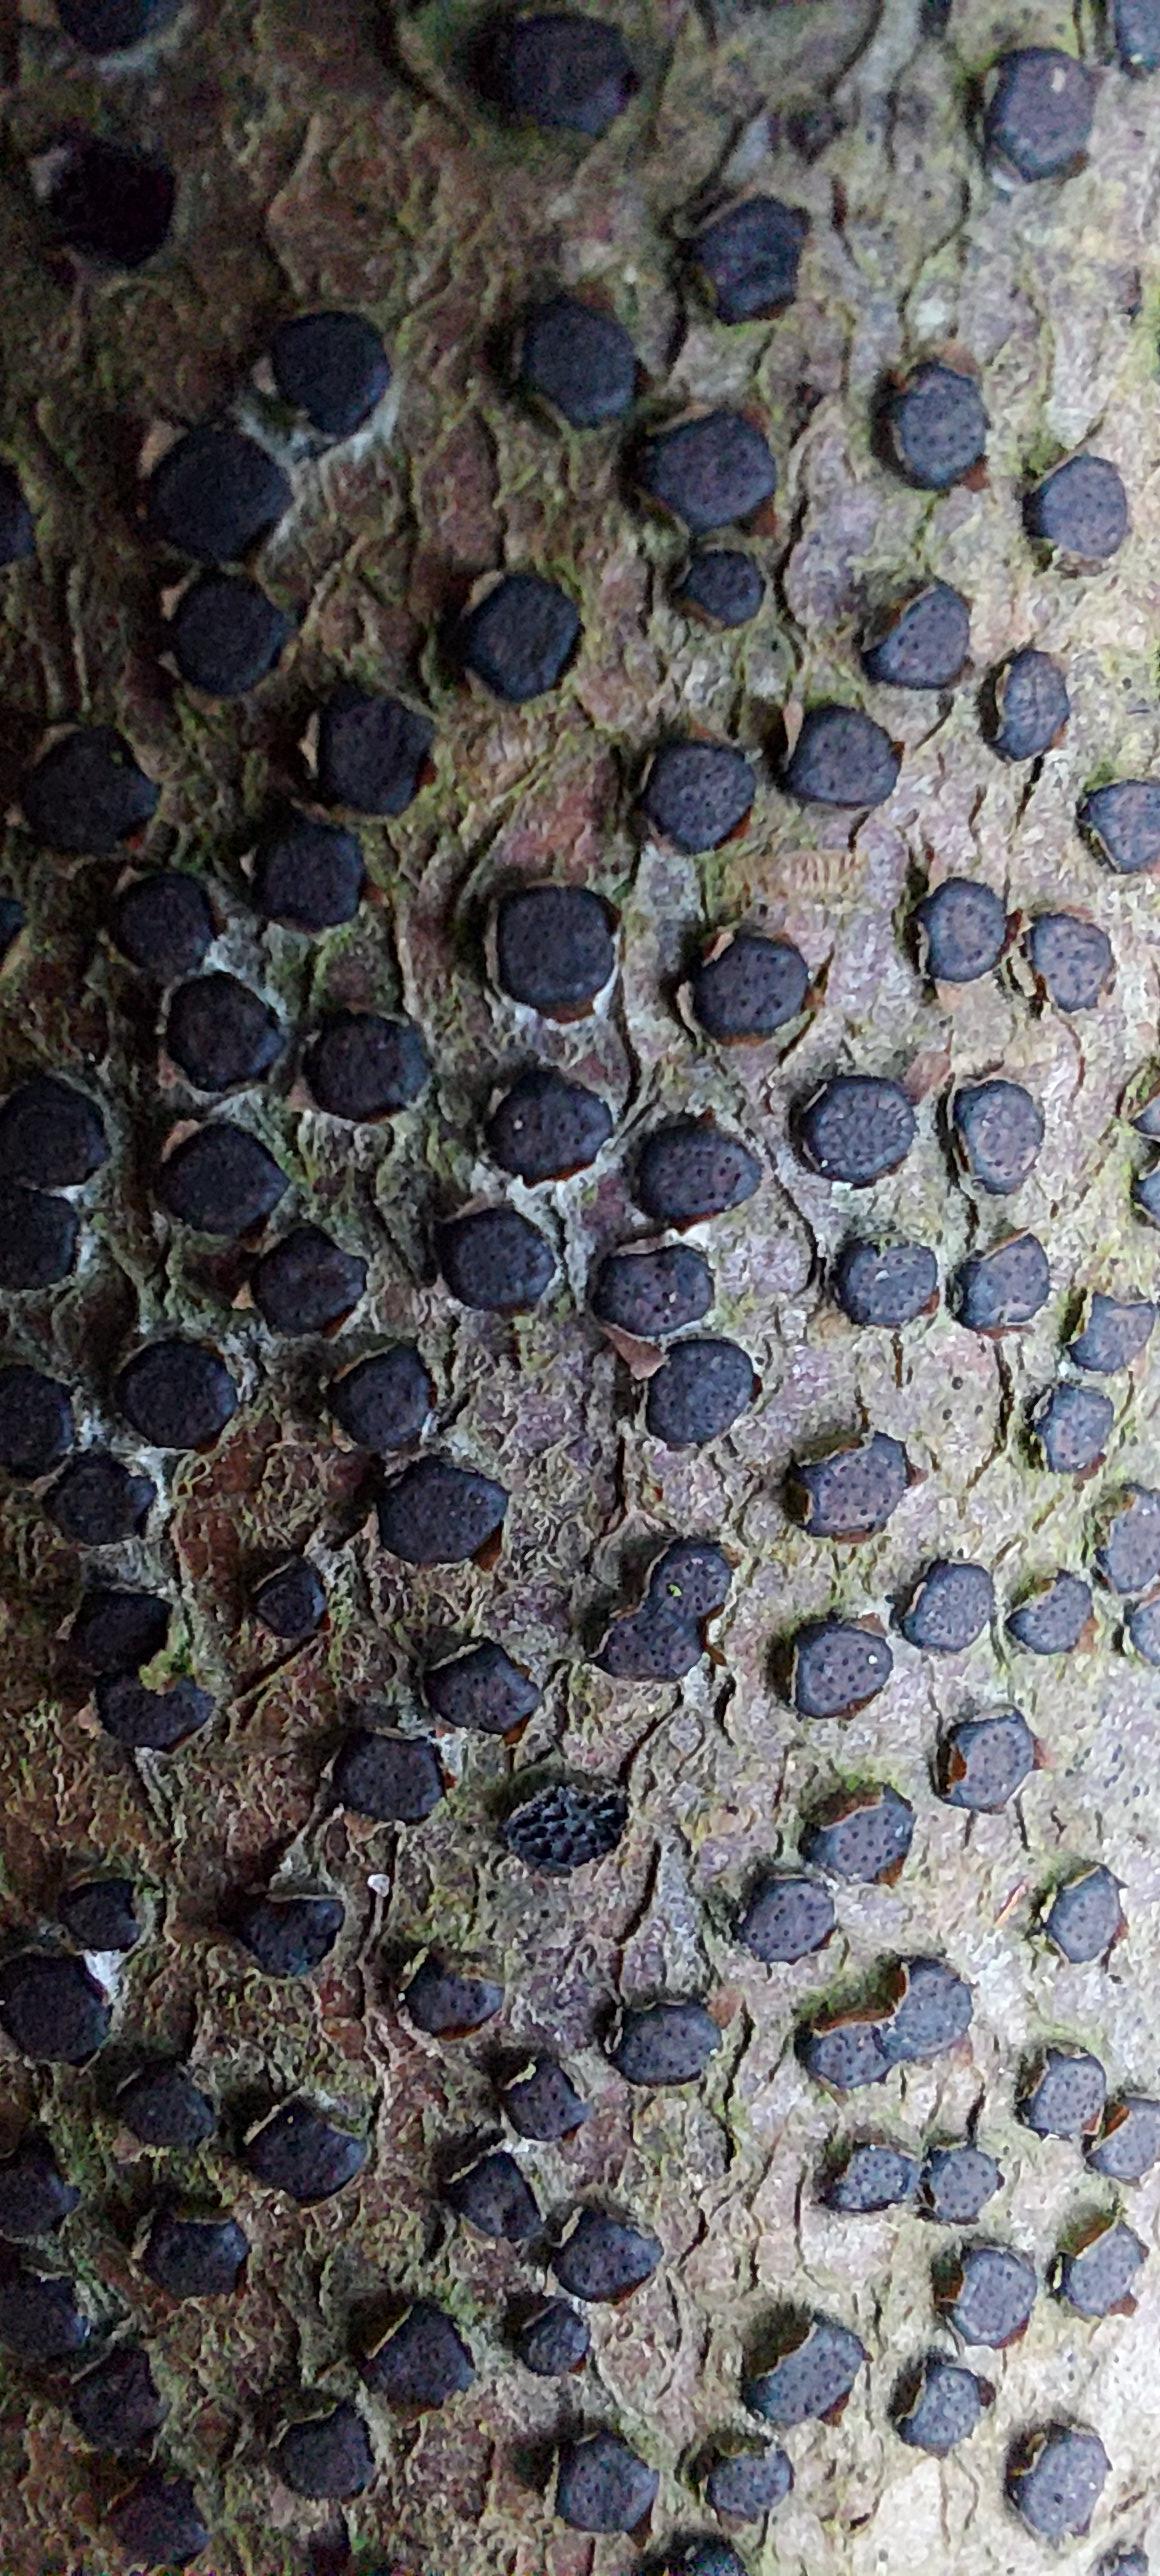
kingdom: Fungi
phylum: Ascomycota
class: Sordariomycetes
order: Xylariales
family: Diatrypaceae
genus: Diatrype
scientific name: Diatrype disciformis
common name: kant-kulskorpe
